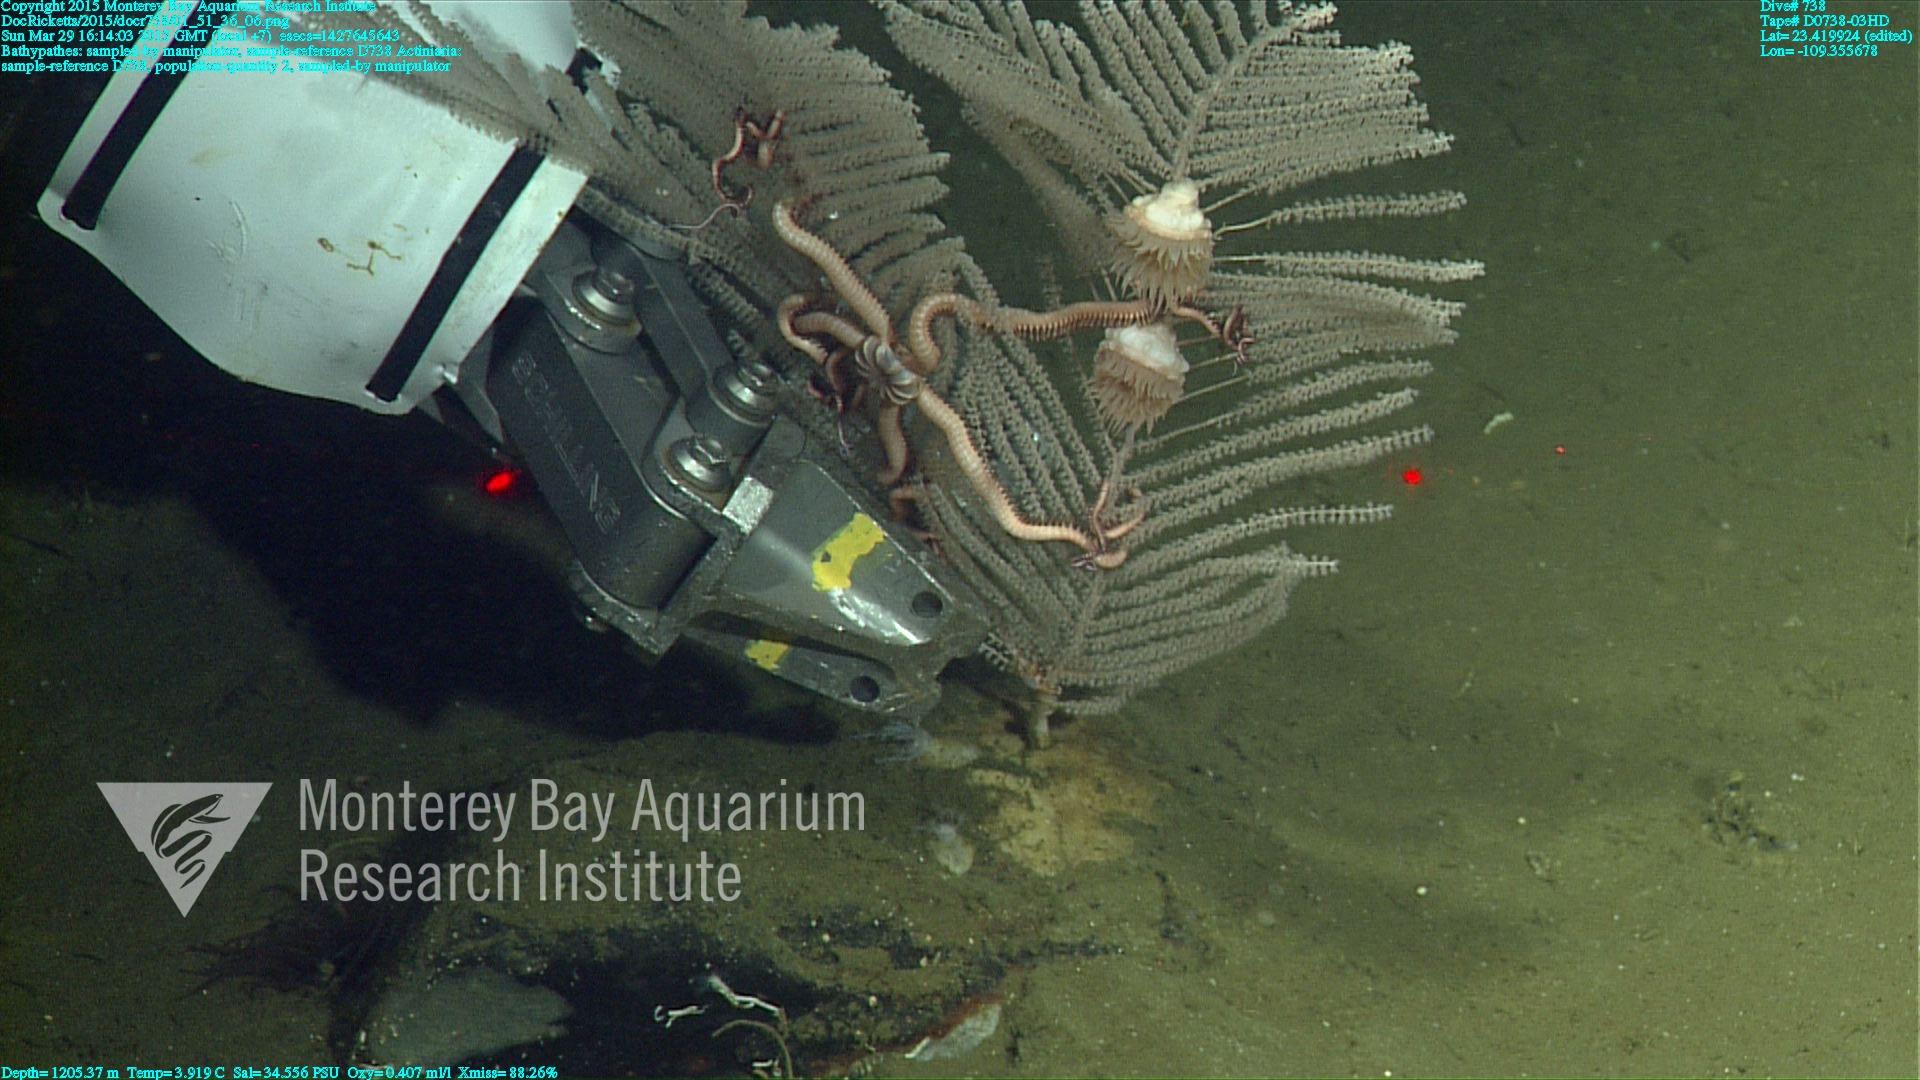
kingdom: Animalia
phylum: Cnidaria
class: Anthozoa
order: Antipatharia
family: Schizopathidae
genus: Bathypathes
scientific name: Bathypathes
